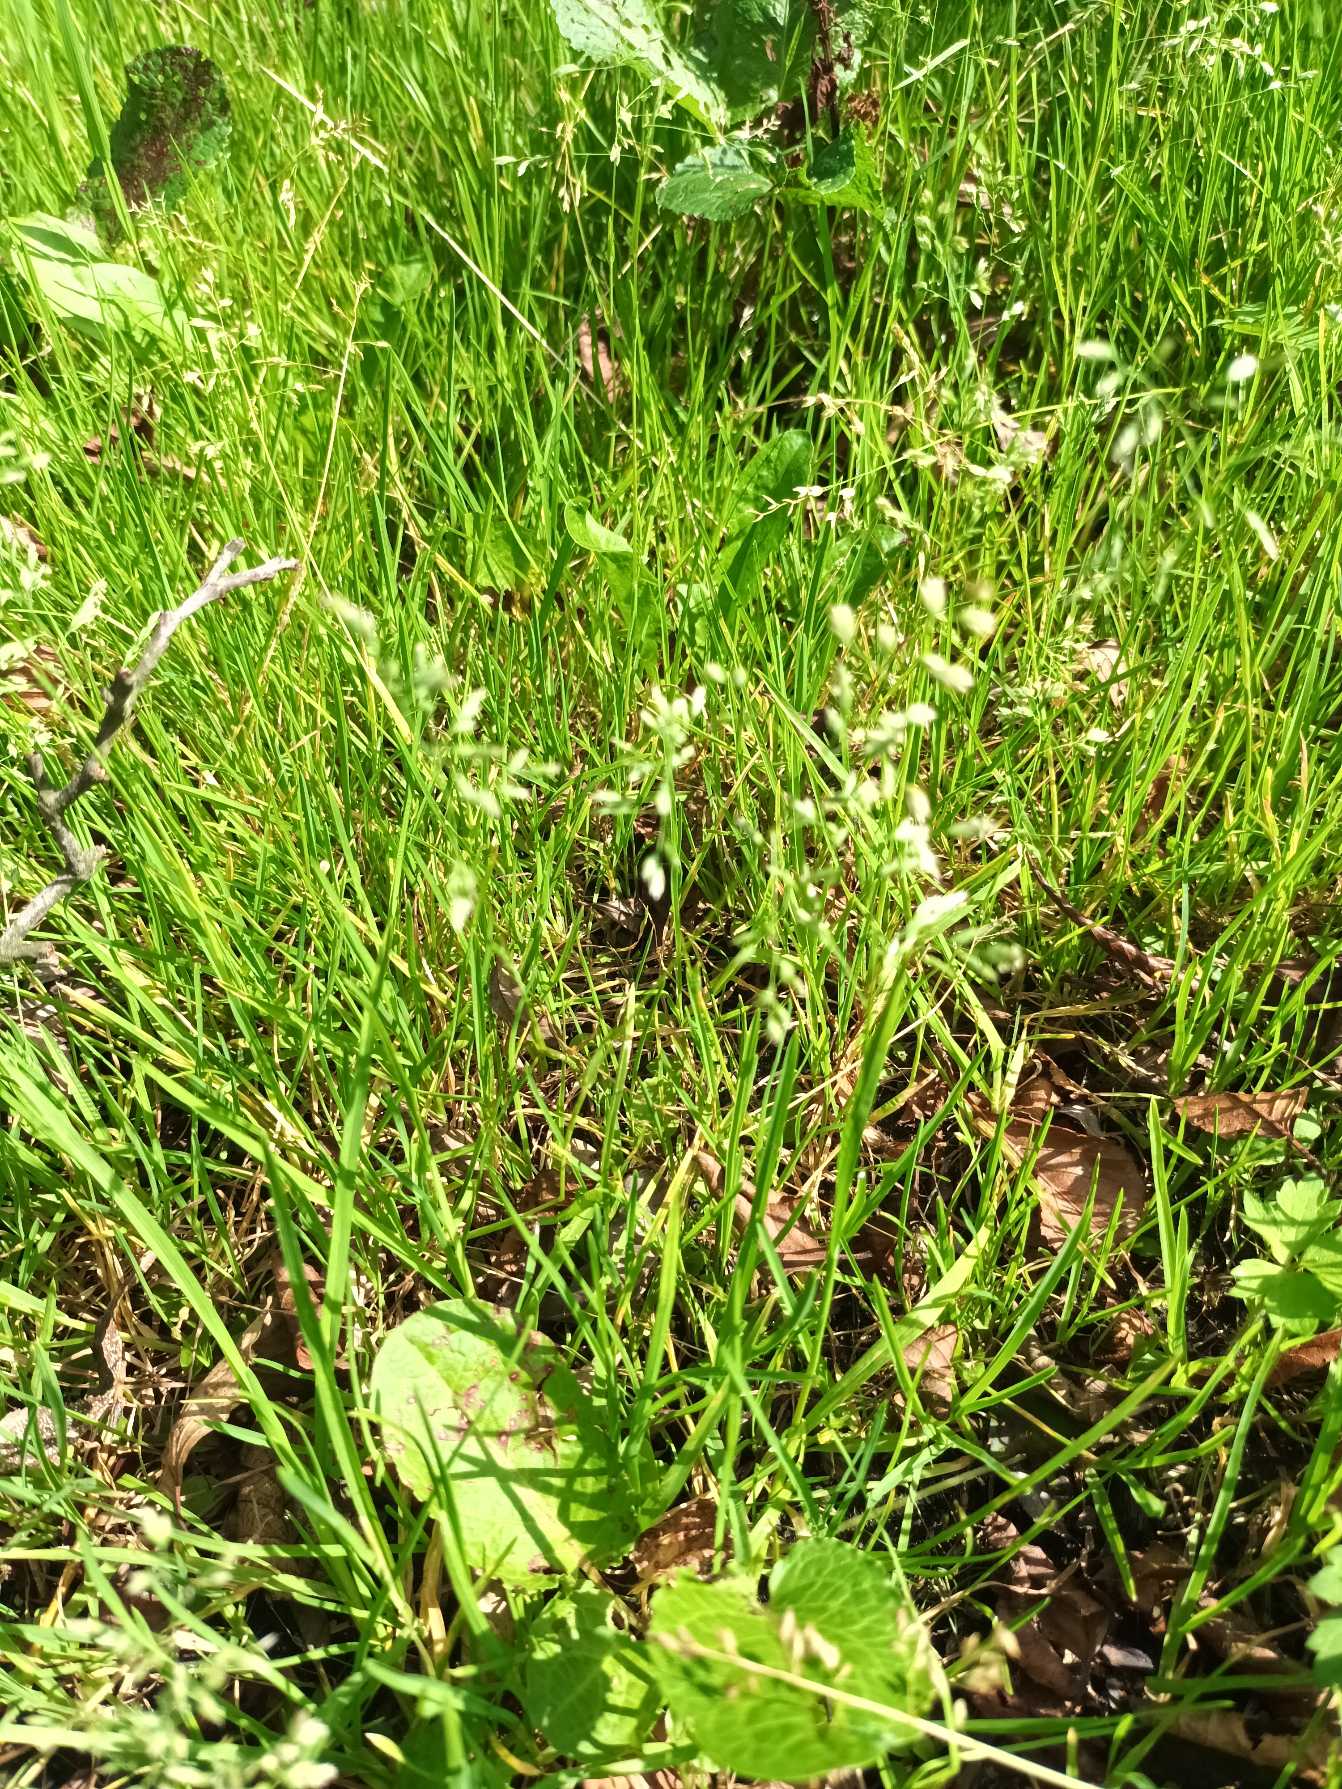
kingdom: Plantae
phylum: Tracheophyta
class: Liliopsida
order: Poales
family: Poaceae
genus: Poa
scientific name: Poa annua
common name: Enårig rapgræs
